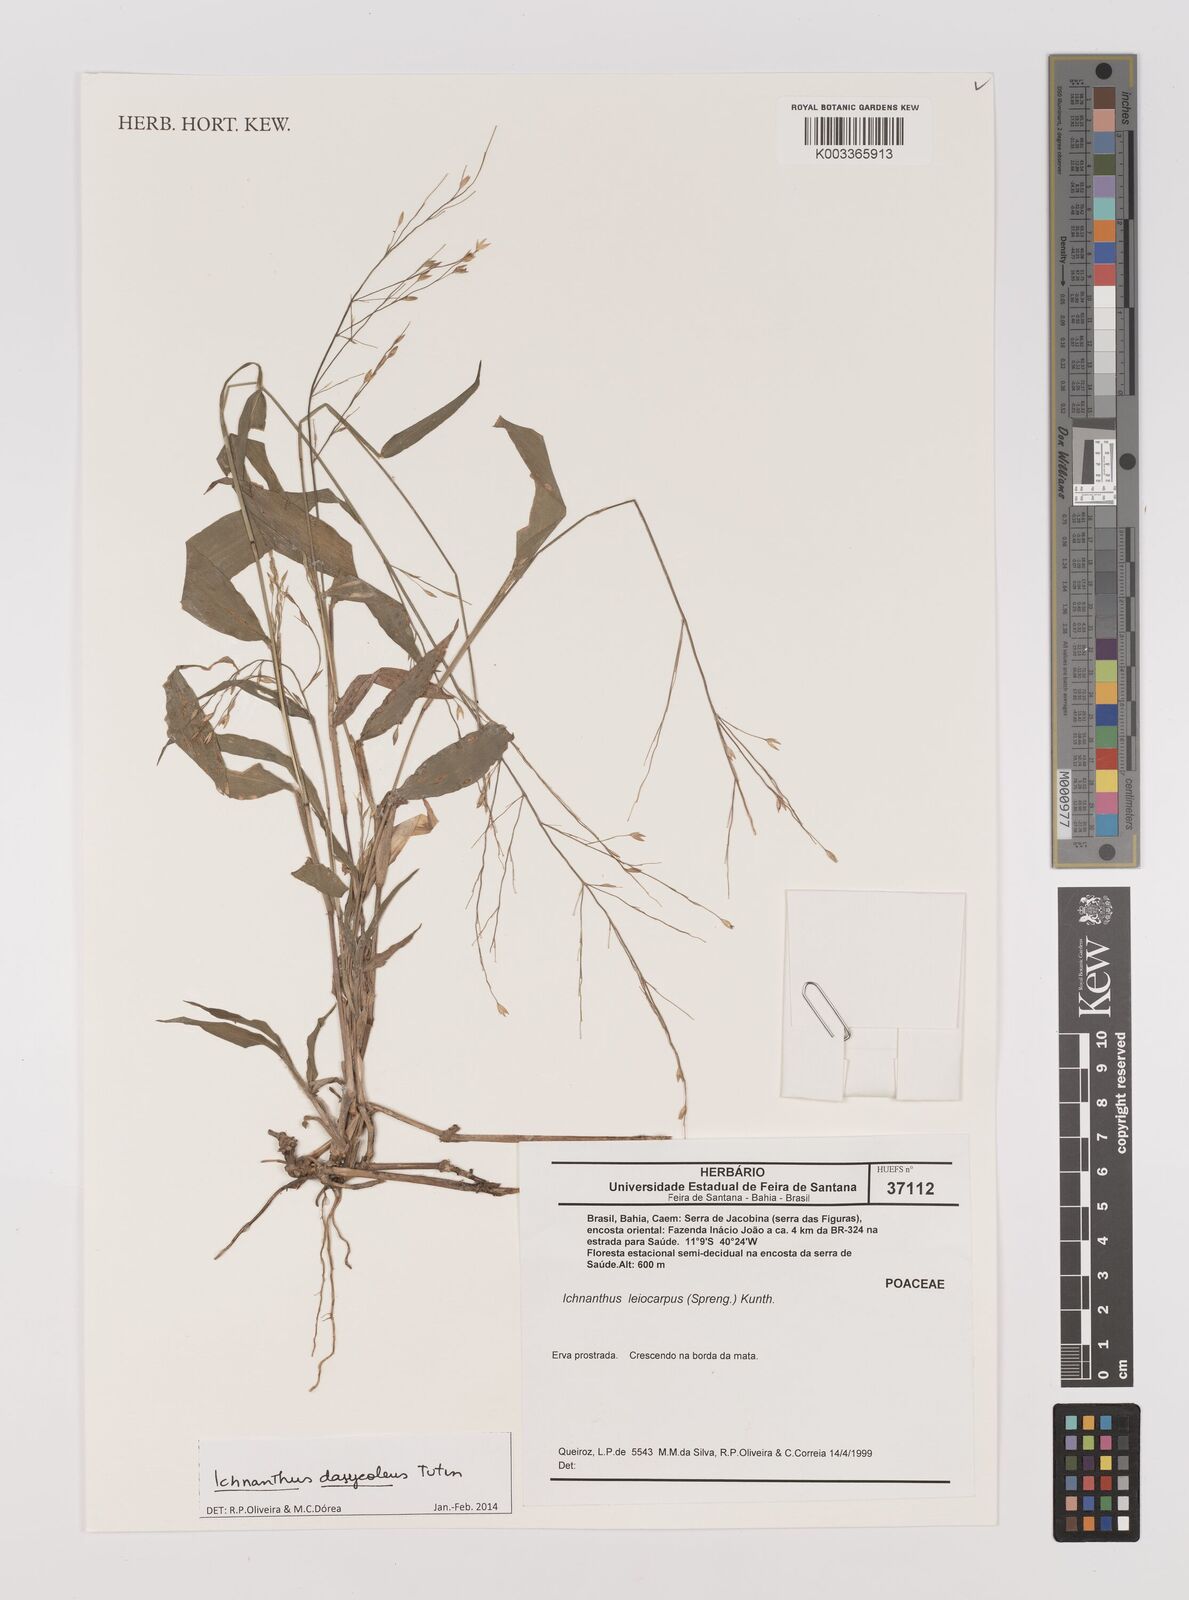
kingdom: Plantae
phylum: Tracheophyta
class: Liliopsida
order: Poales
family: Poaceae
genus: Ichnanthus
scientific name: Ichnanthus dasycoleus
